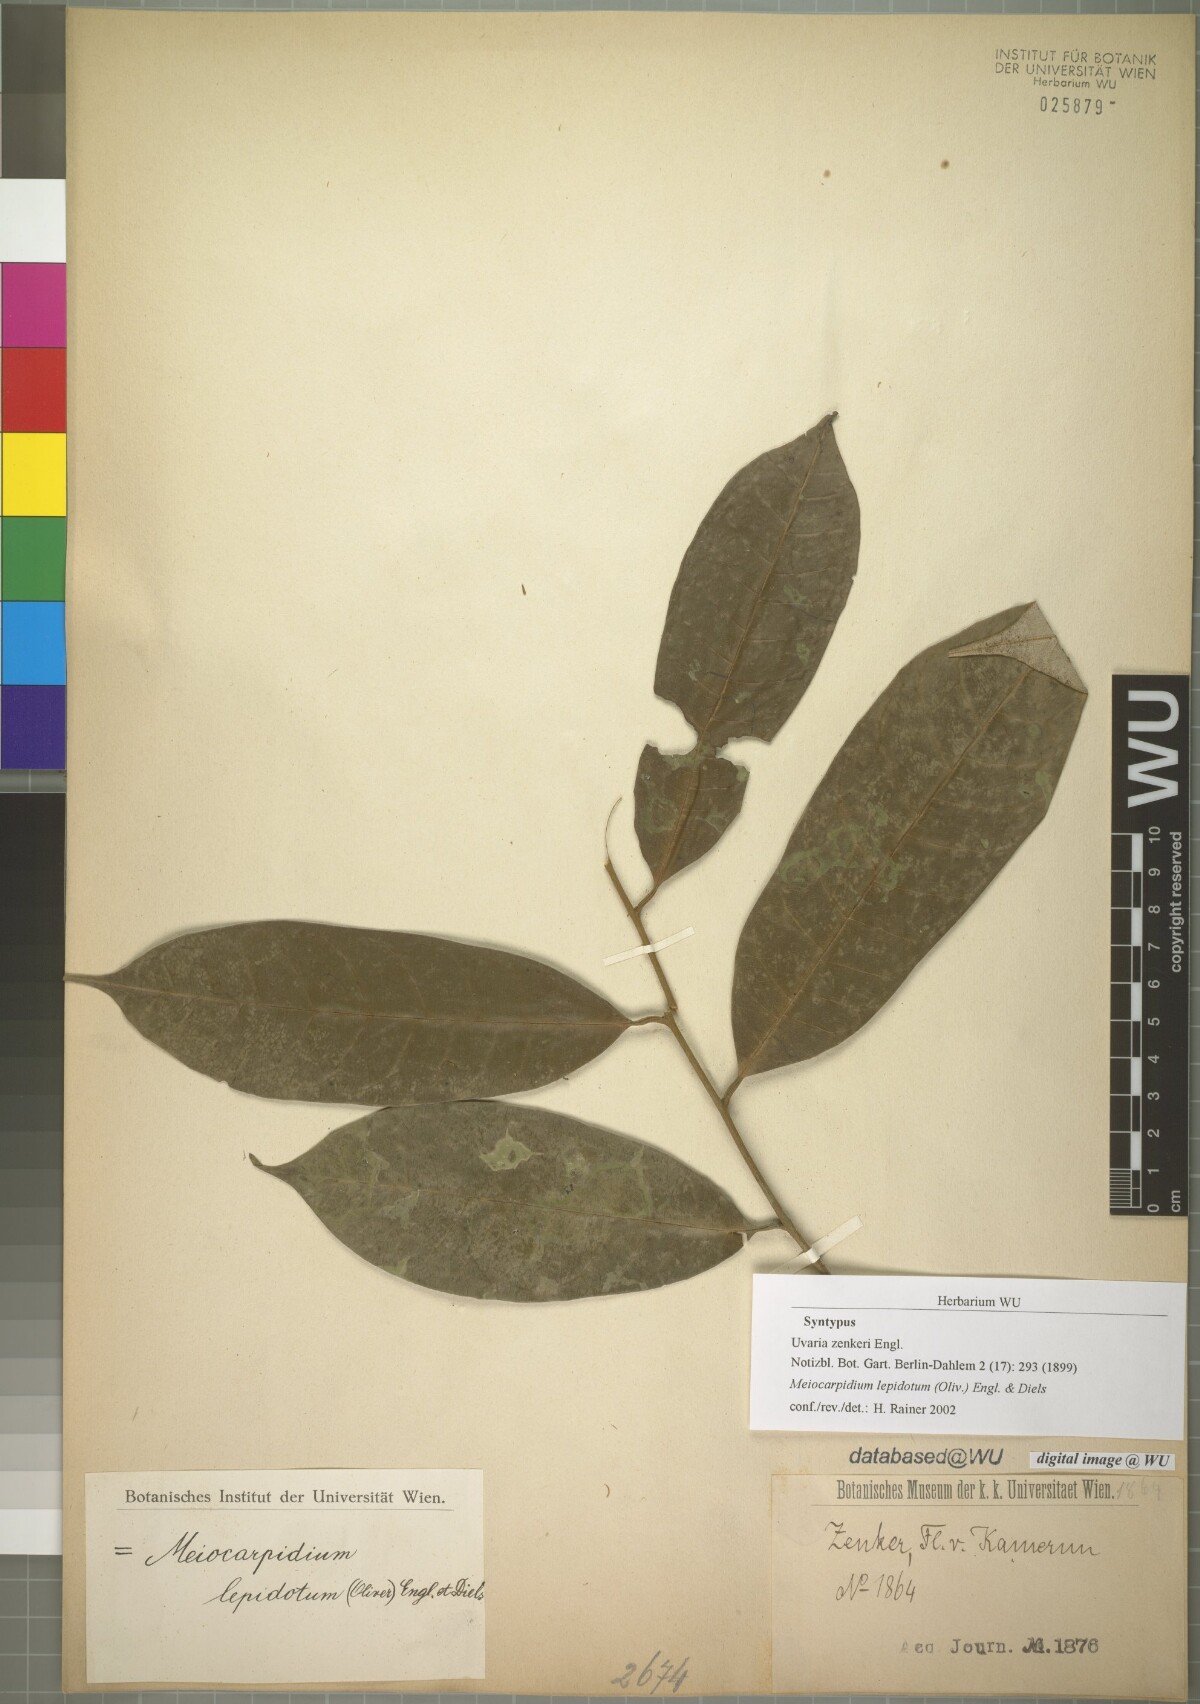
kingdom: Plantae
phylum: Tracheophyta
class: Magnoliopsida
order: Magnoliales
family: Annonaceae
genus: Meiocarpidium
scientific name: Meiocarpidium lepidotum
